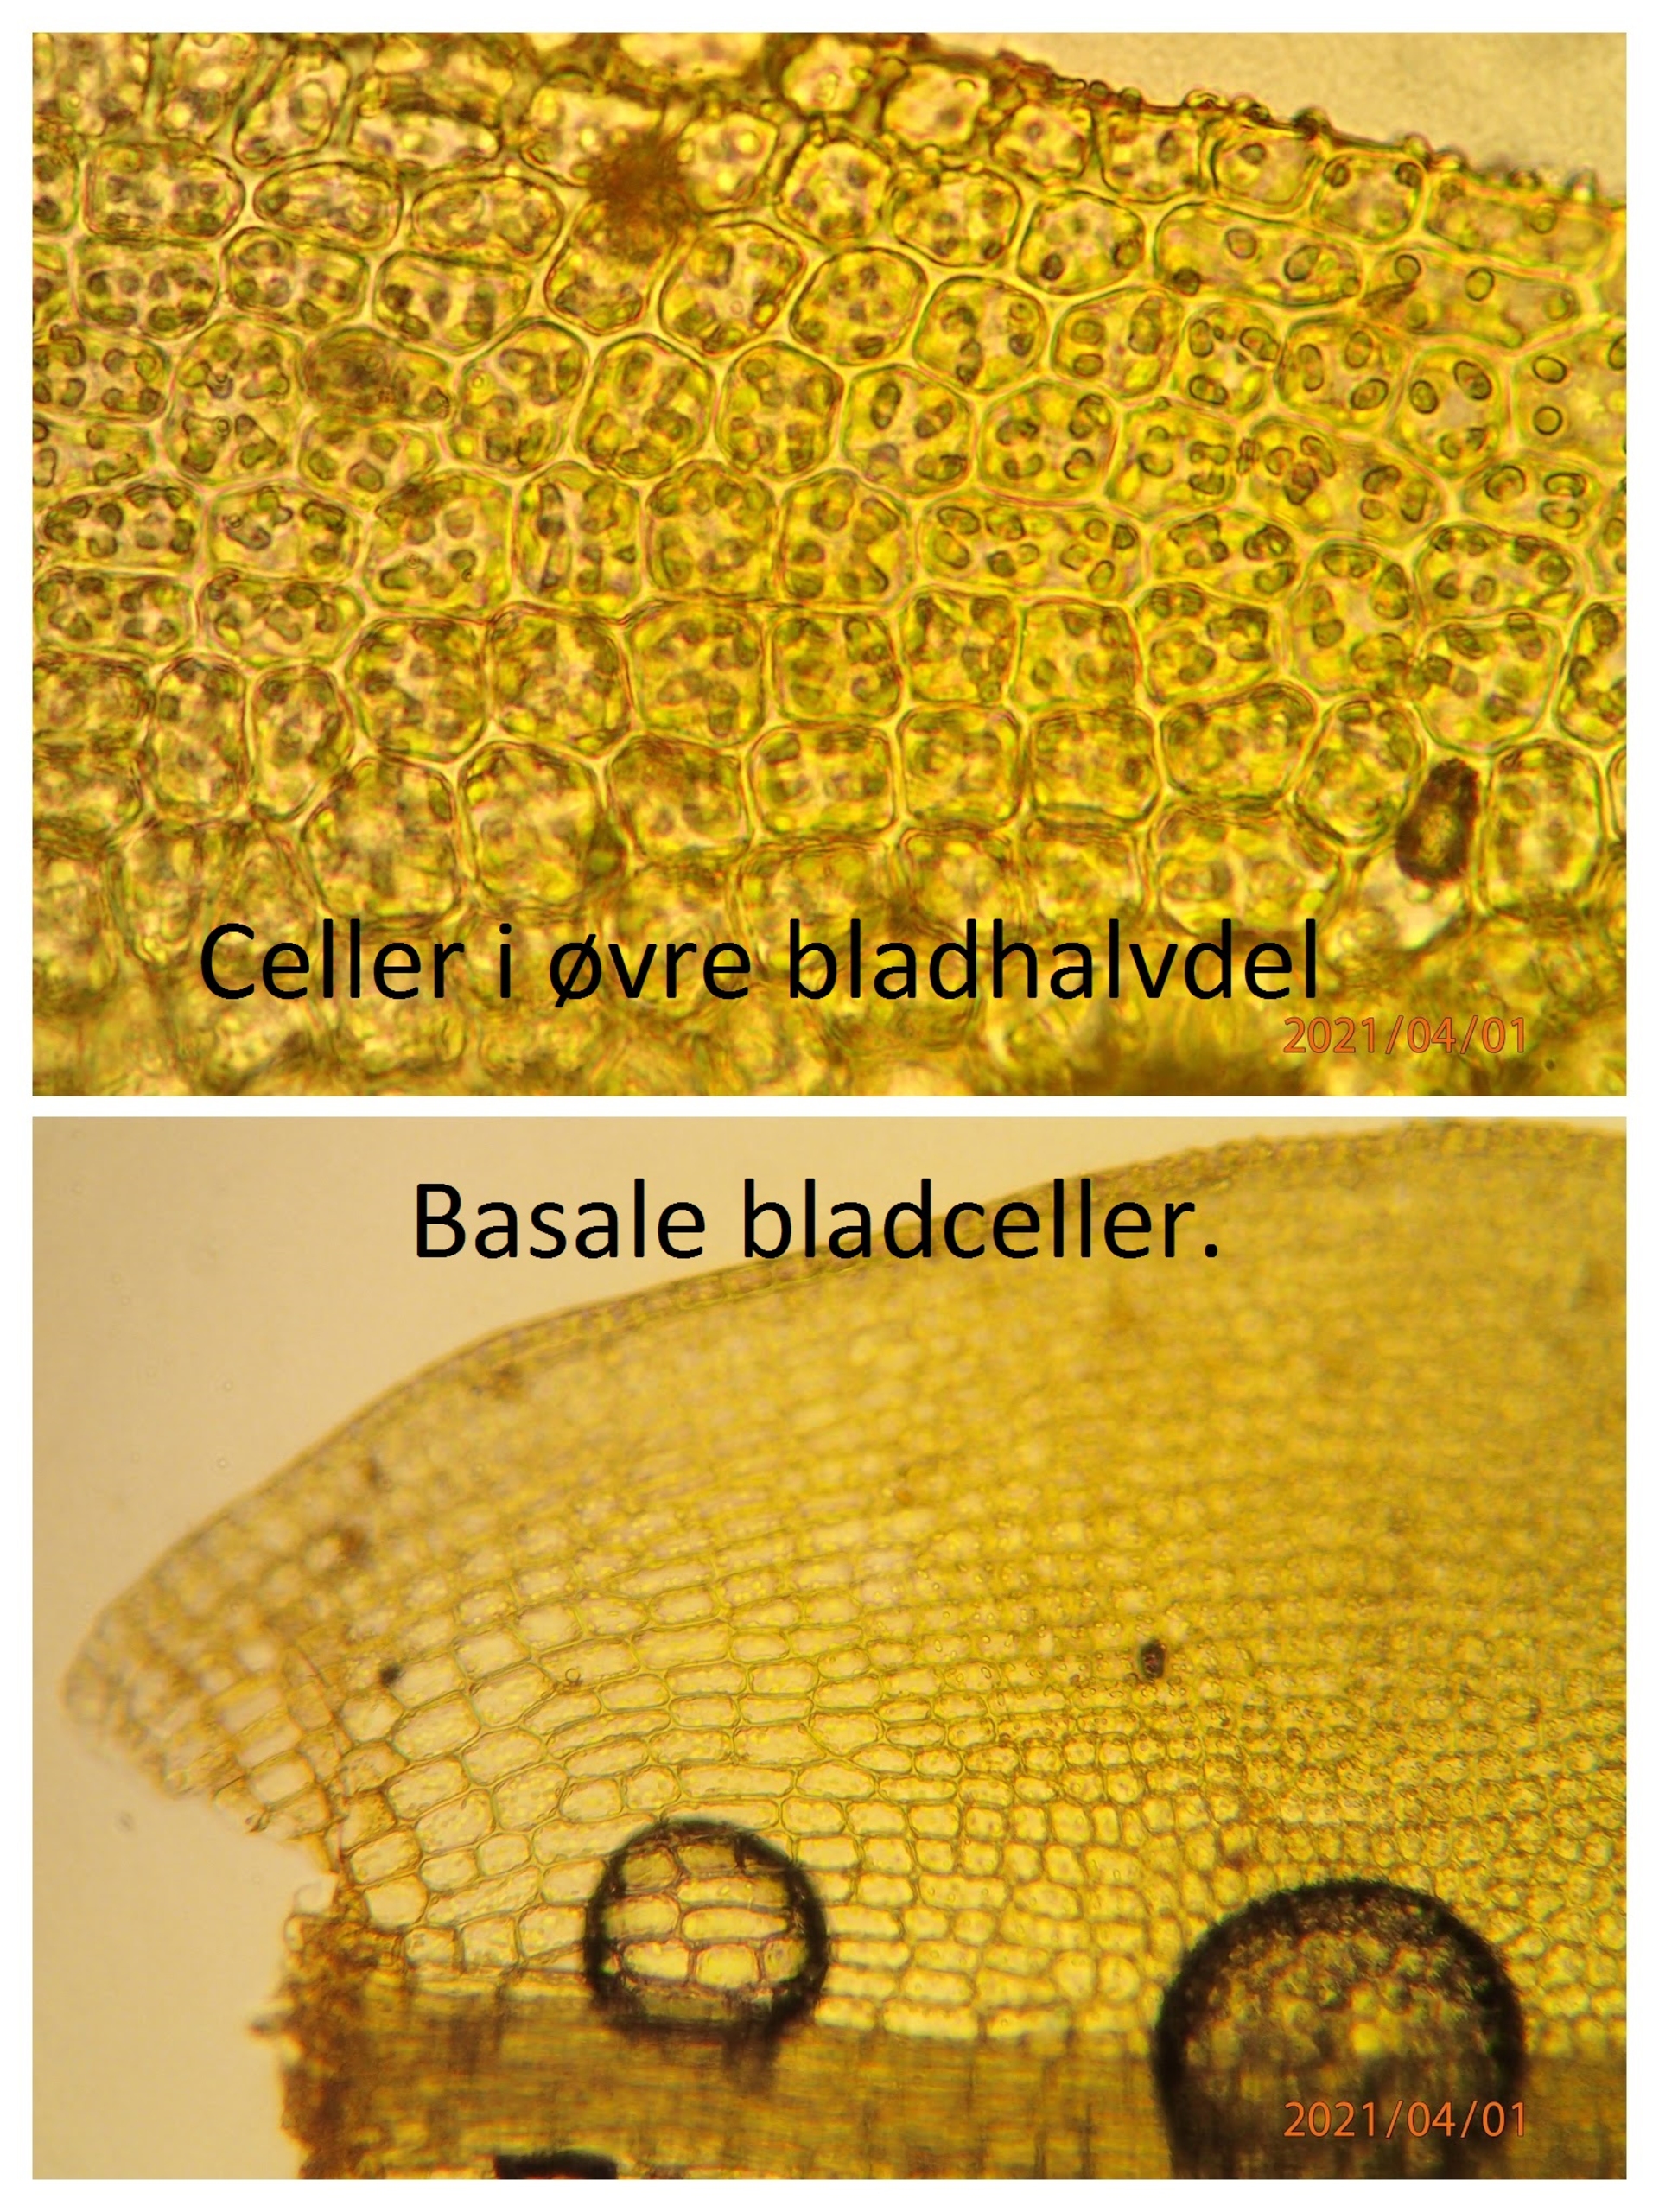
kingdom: Plantae
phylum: Bryophyta
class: Bryopsida
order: Pottiales
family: Pottiaceae
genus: Tortula
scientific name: Tortula acaulon
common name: Tilspidset dværgmos
